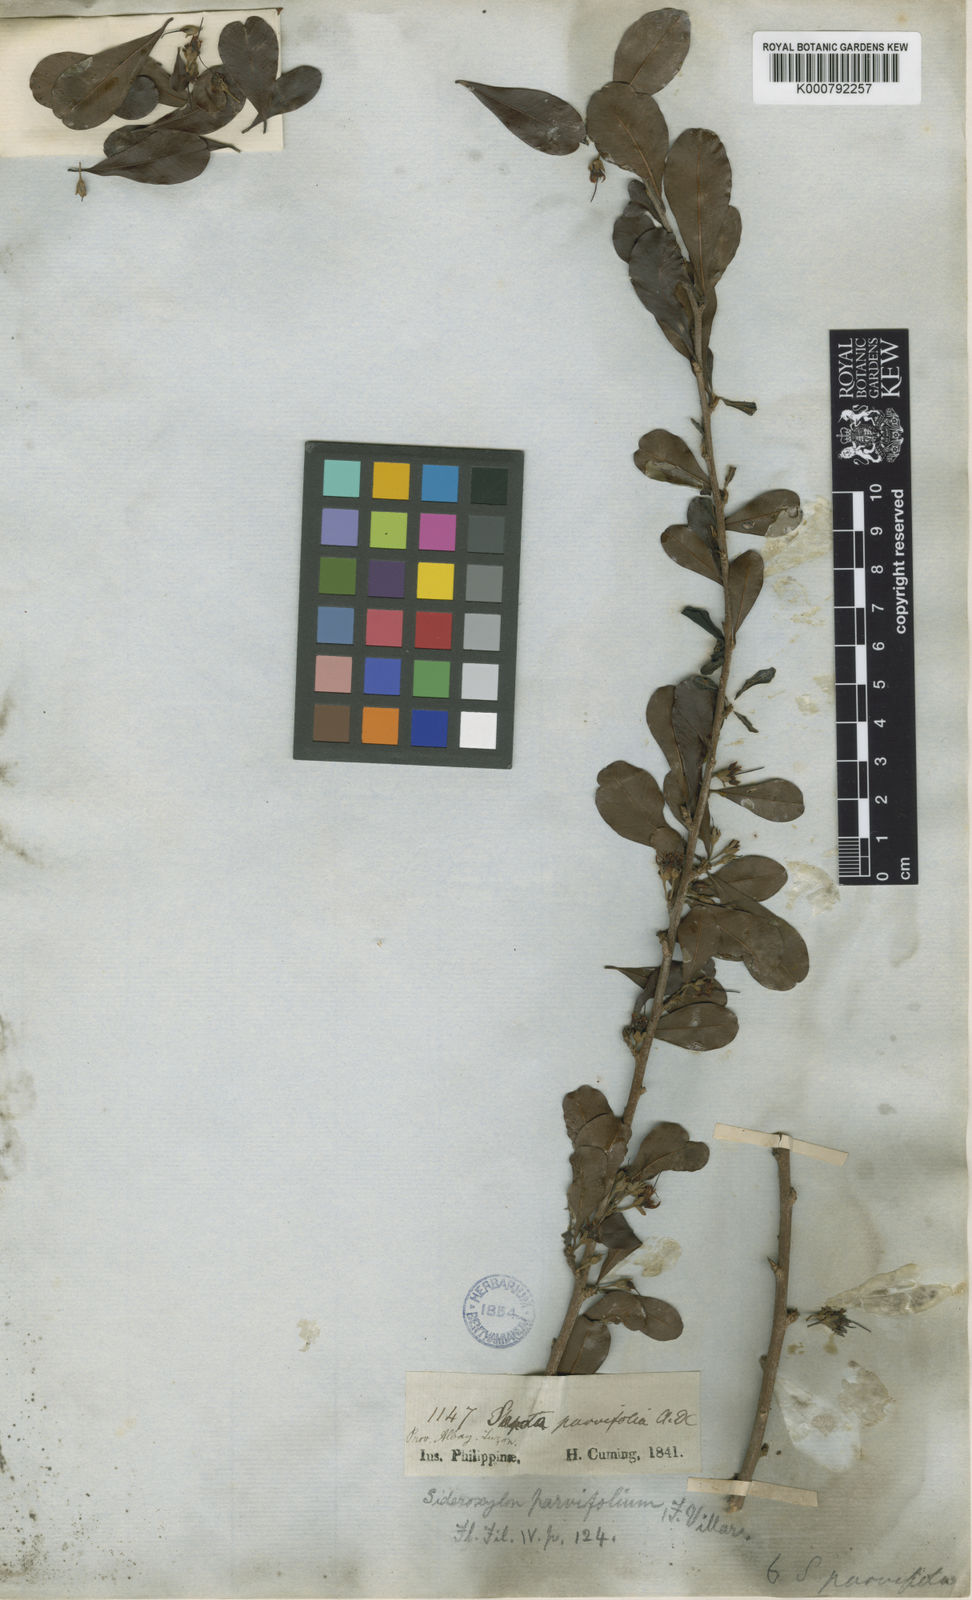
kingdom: Plantae
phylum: Tracheophyta
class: Magnoliopsida
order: Ericales
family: Sapotaceae
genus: Xantolis
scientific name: Xantolis parvifolia
